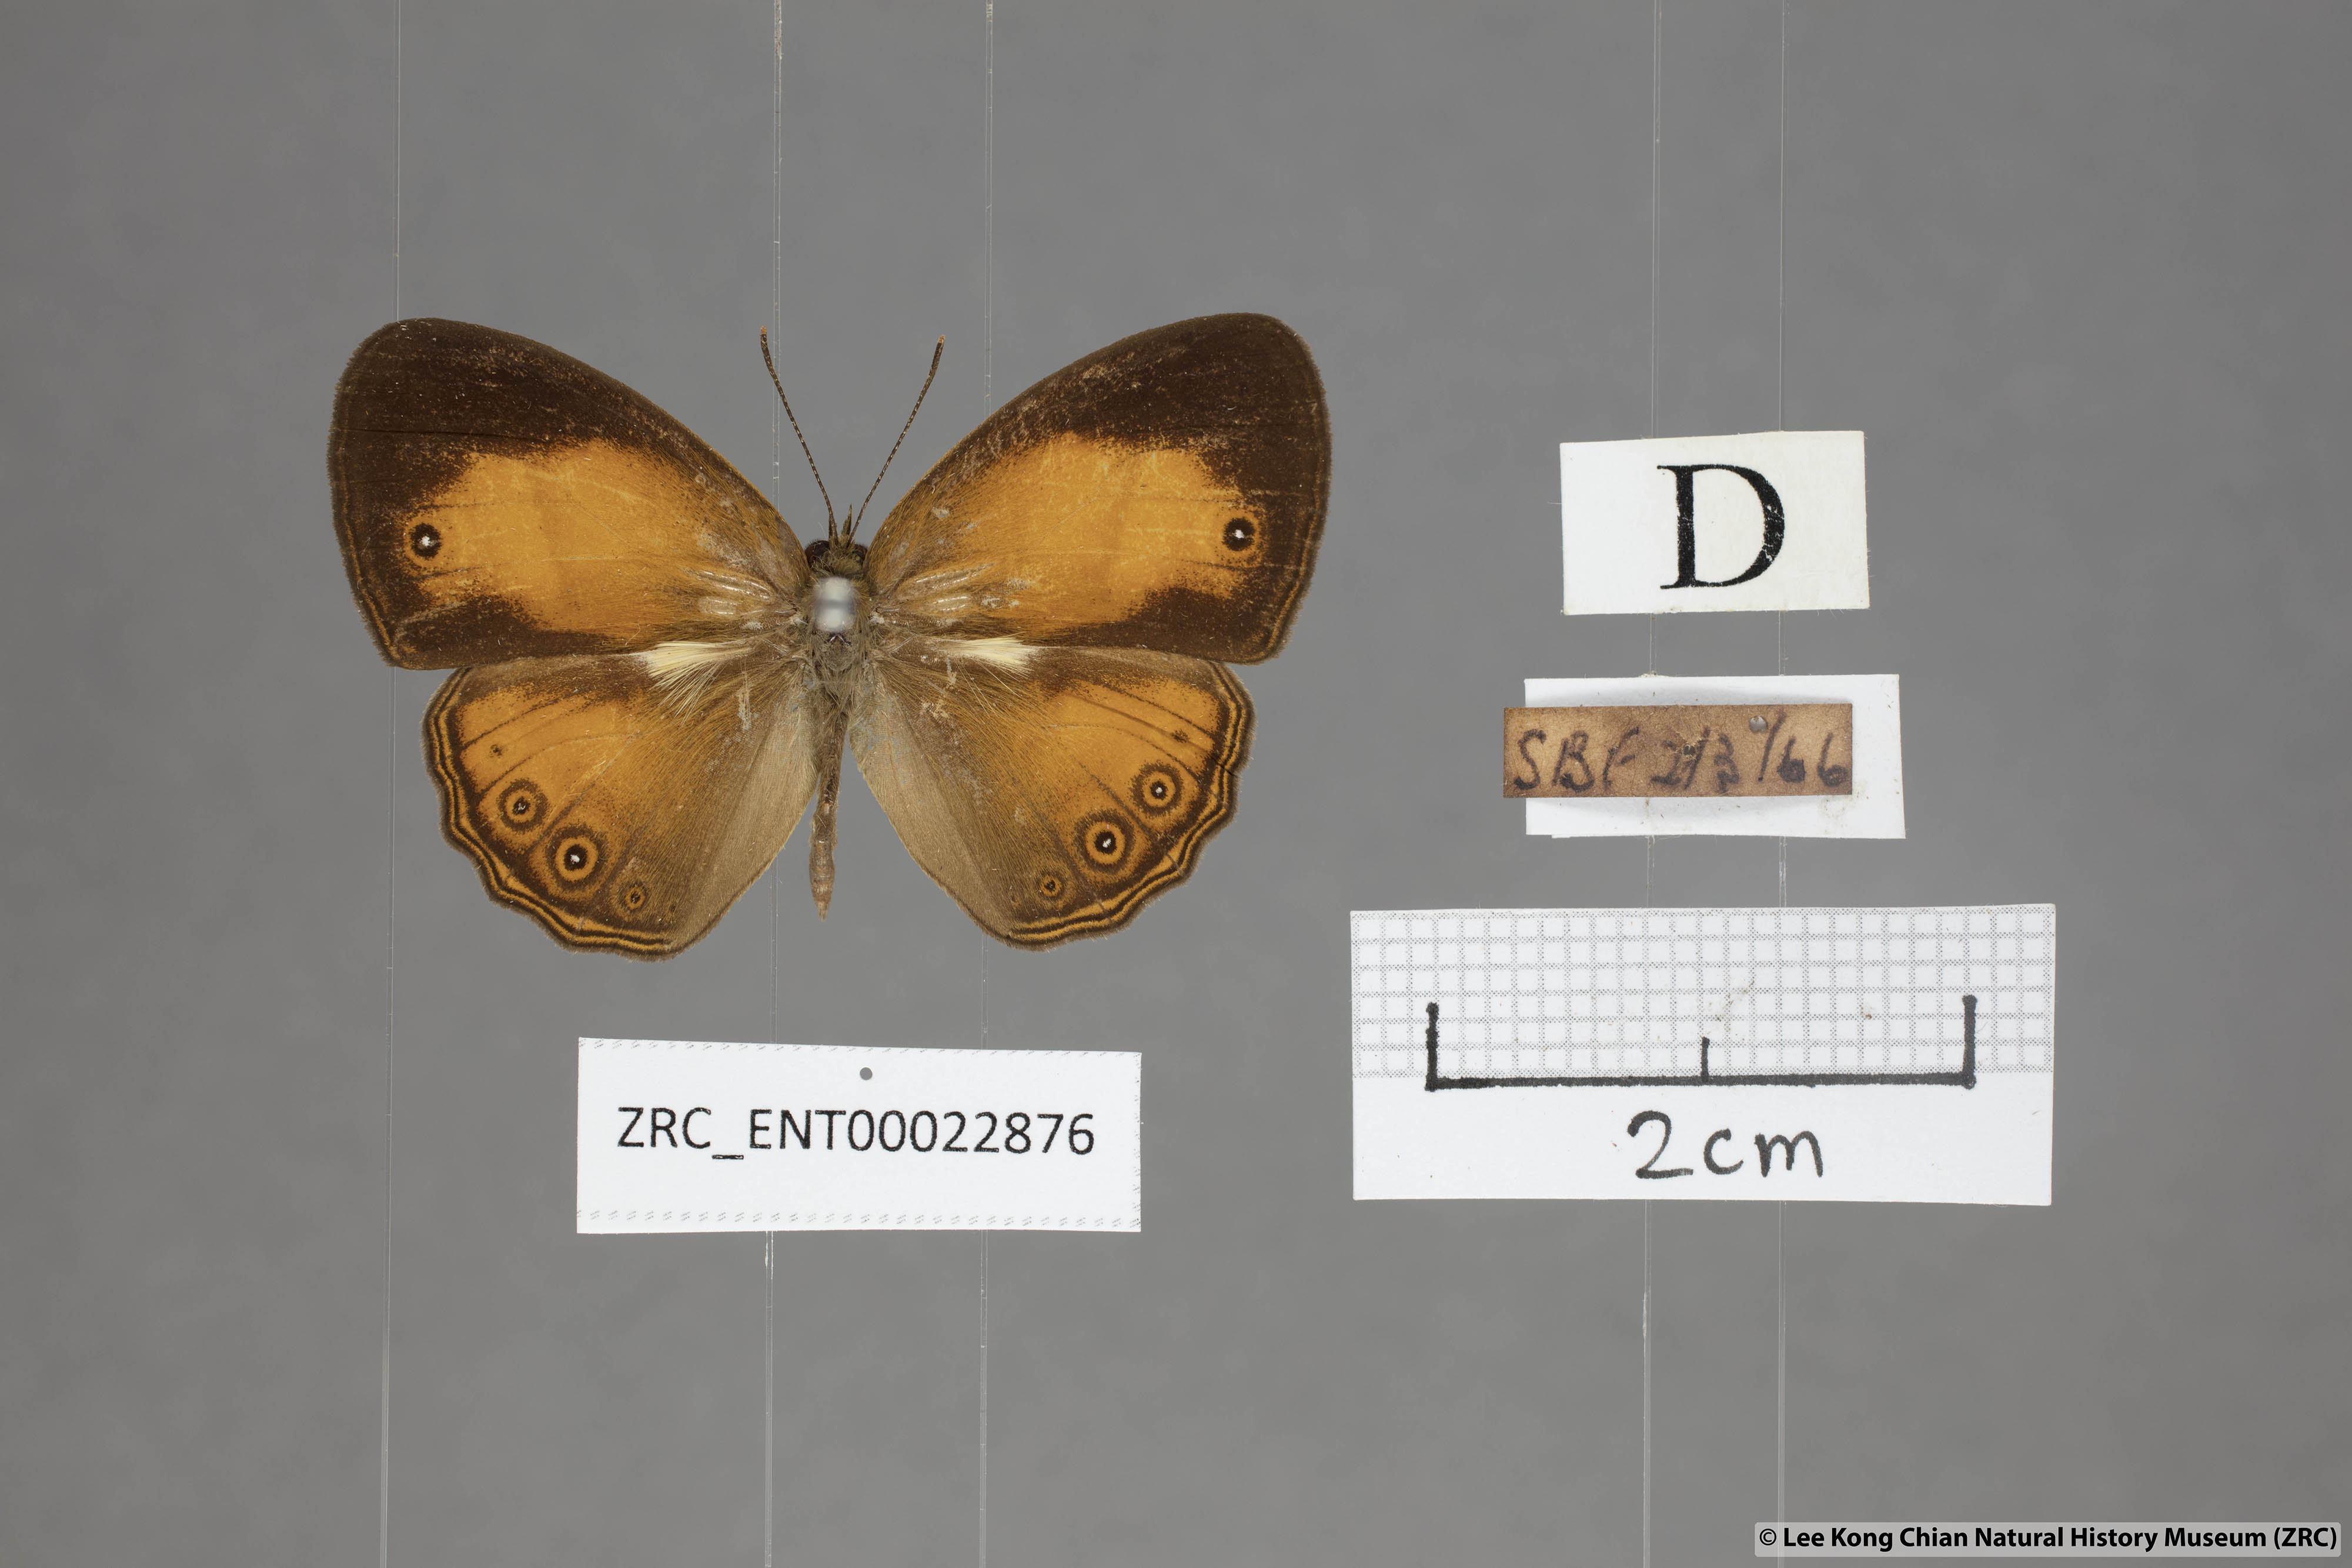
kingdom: Animalia
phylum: Arthropoda
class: Insecta
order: Lepidoptera
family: Nymphalidae
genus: Mycalesis
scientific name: Mycalesis anapita
